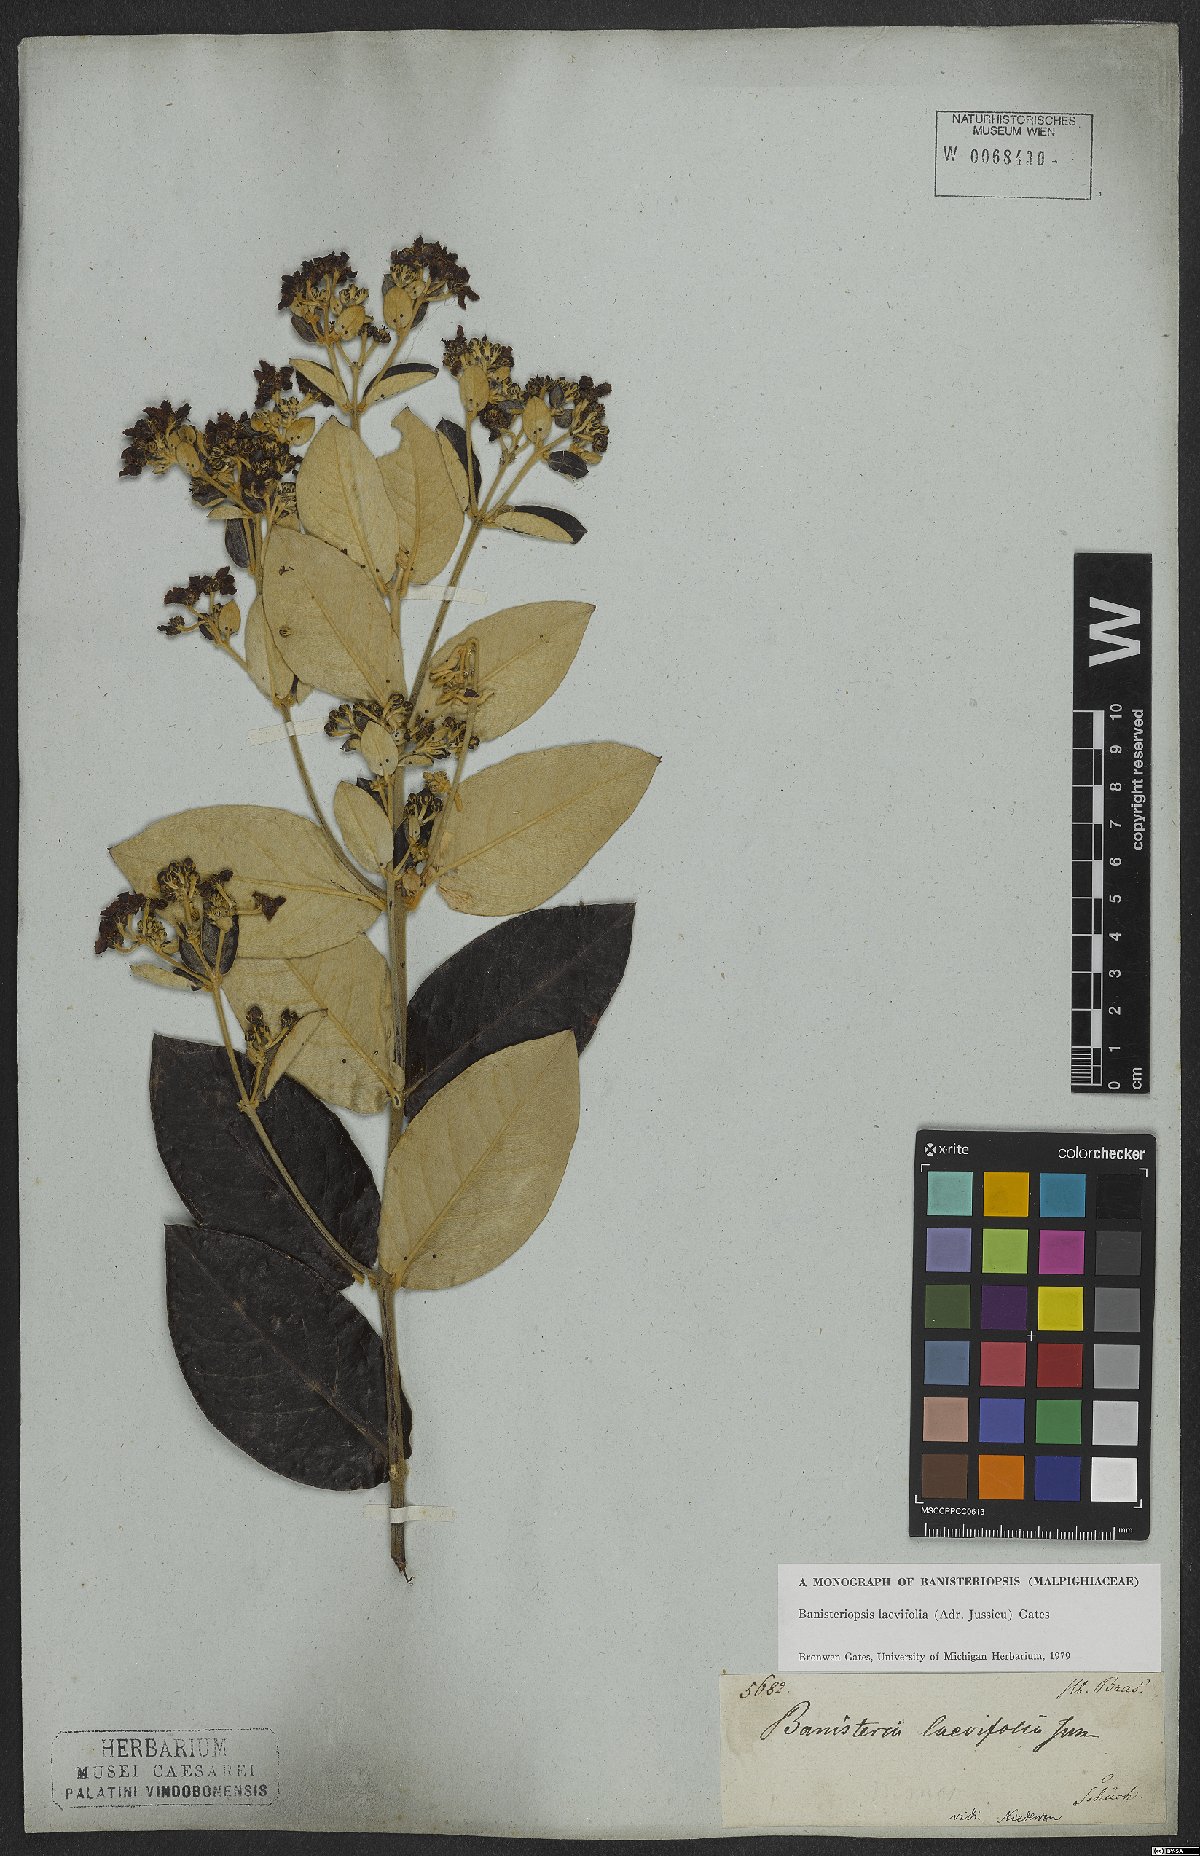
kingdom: Plantae
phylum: Tracheophyta
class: Magnoliopsida
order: Malpighiales
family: Malpighiaceae
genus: Banisteriopsis
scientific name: Banisteriopsis laevifolia
